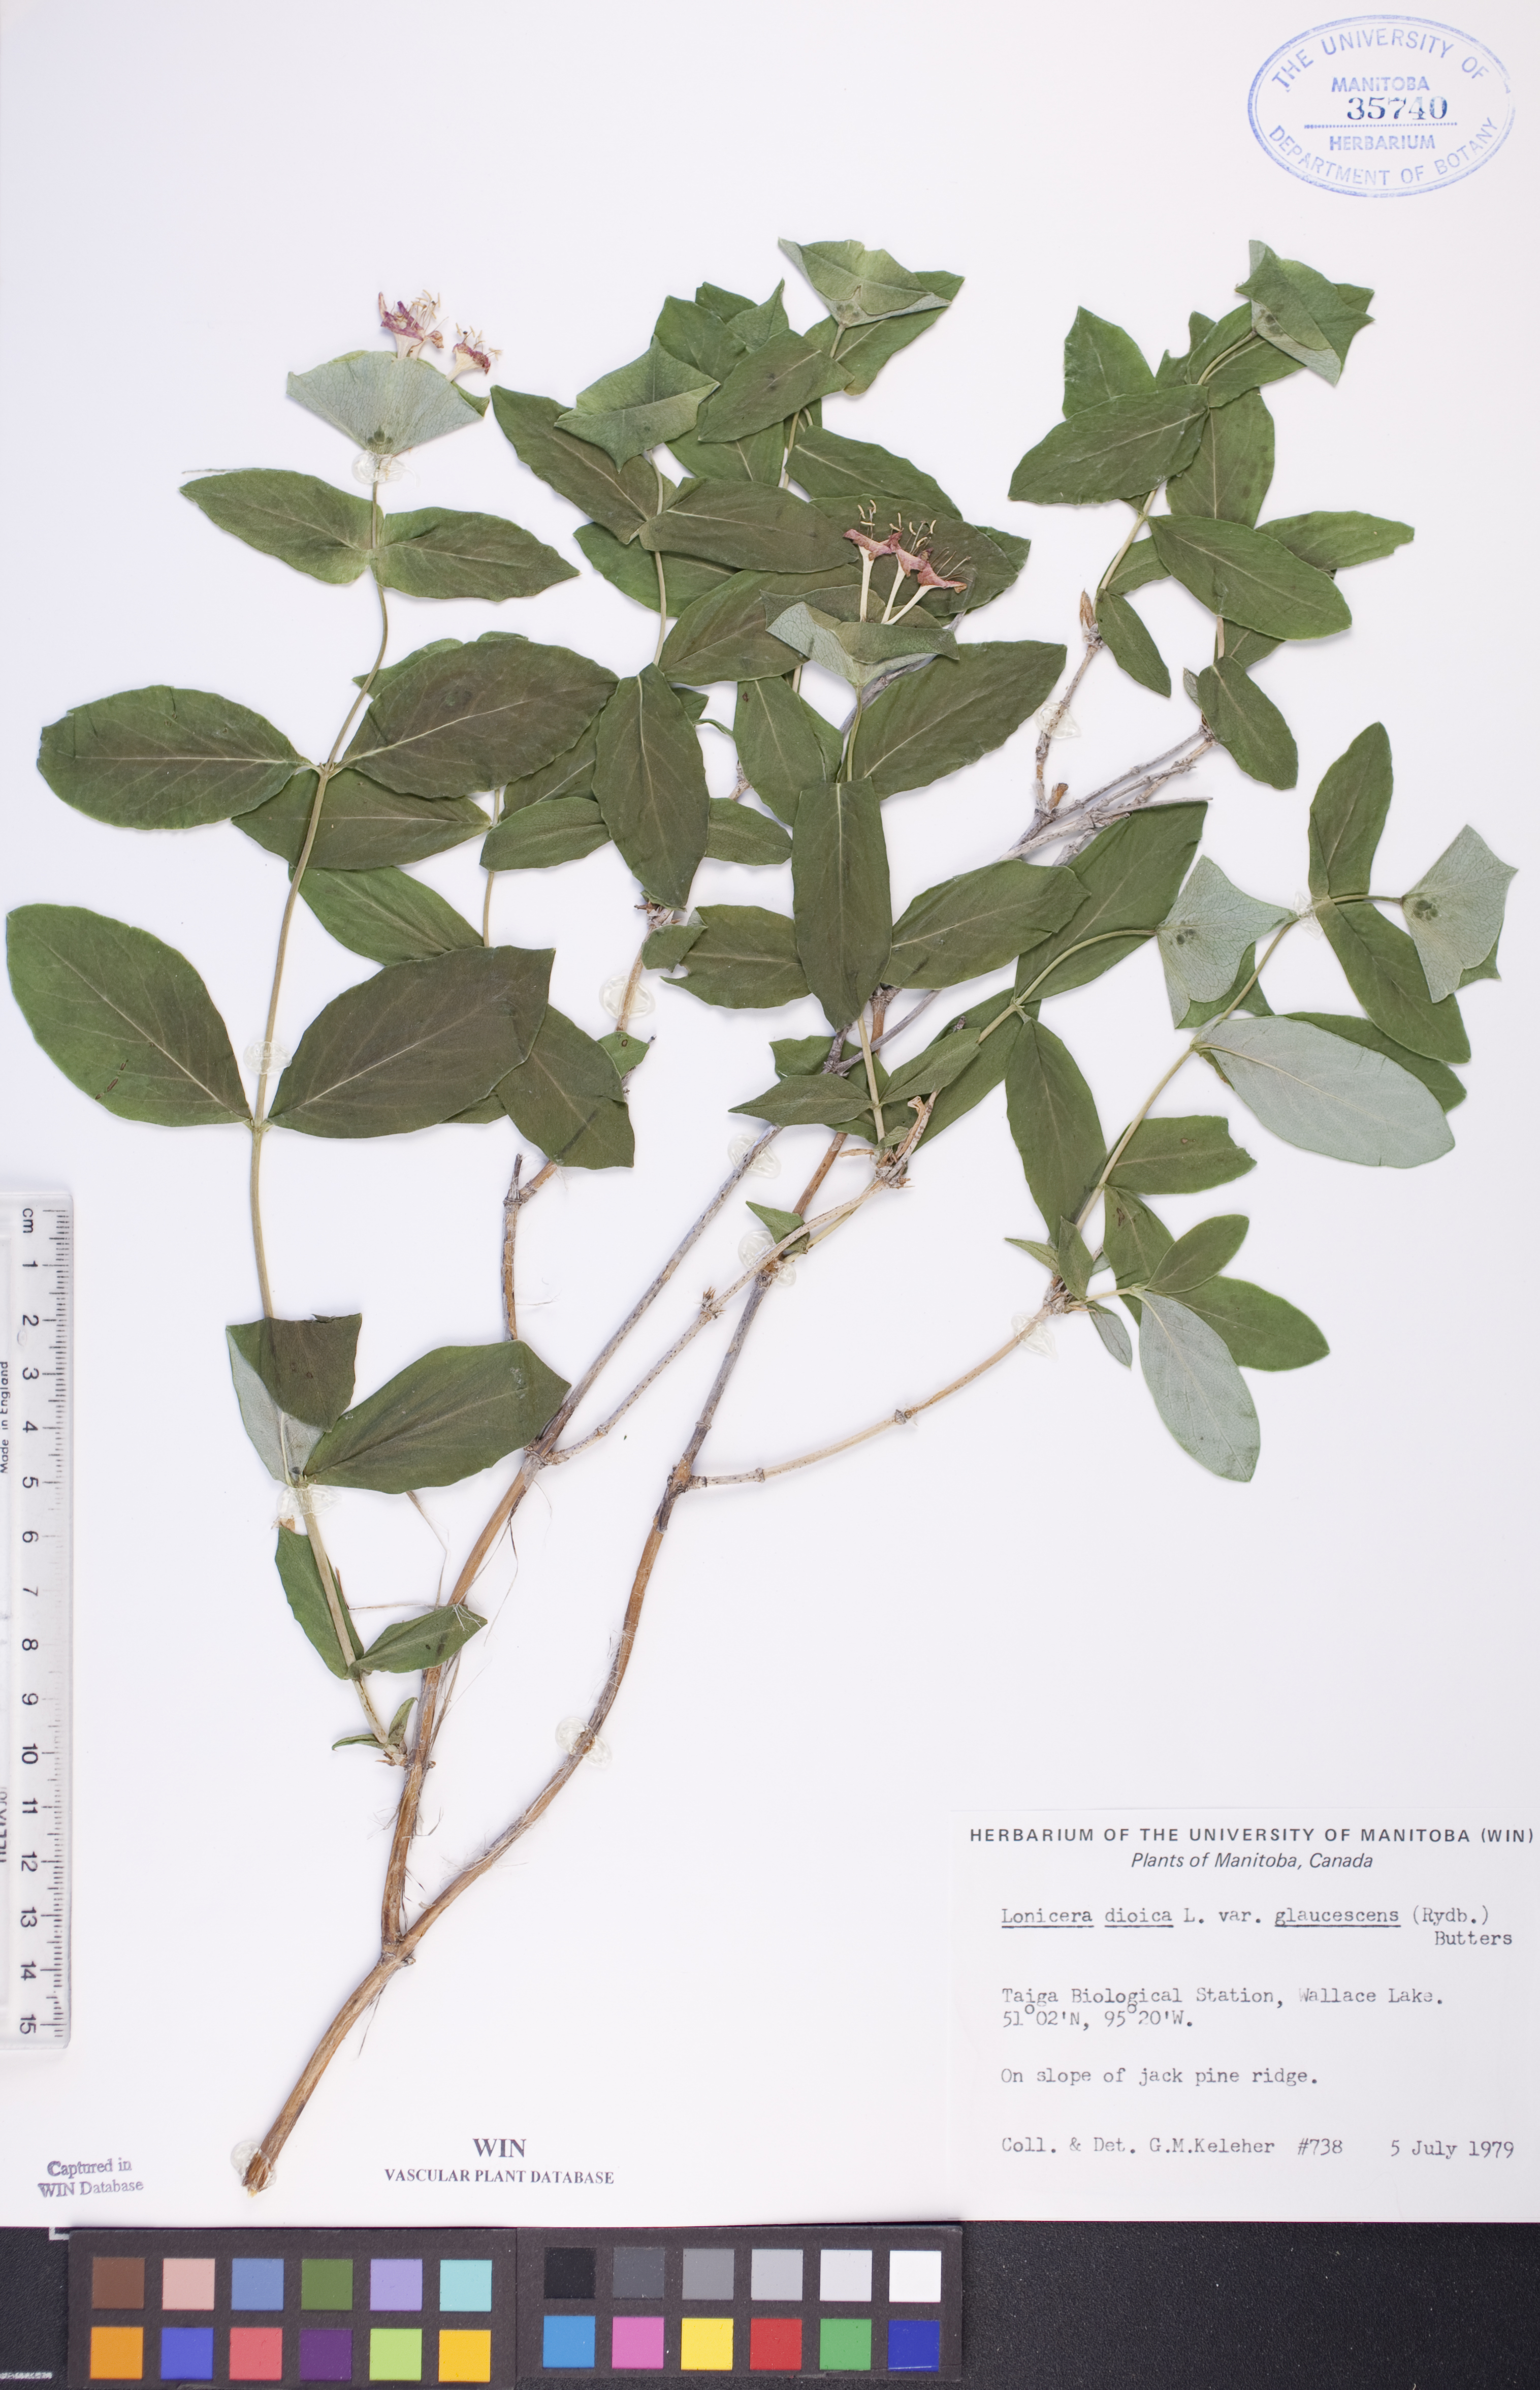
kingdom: Plantae
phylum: Tracheophyta
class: Magnoliopsida
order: Dipsacales
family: Caprifoliaceae
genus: Lonicera
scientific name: Lonicera dioica
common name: Limber honeysuckle
